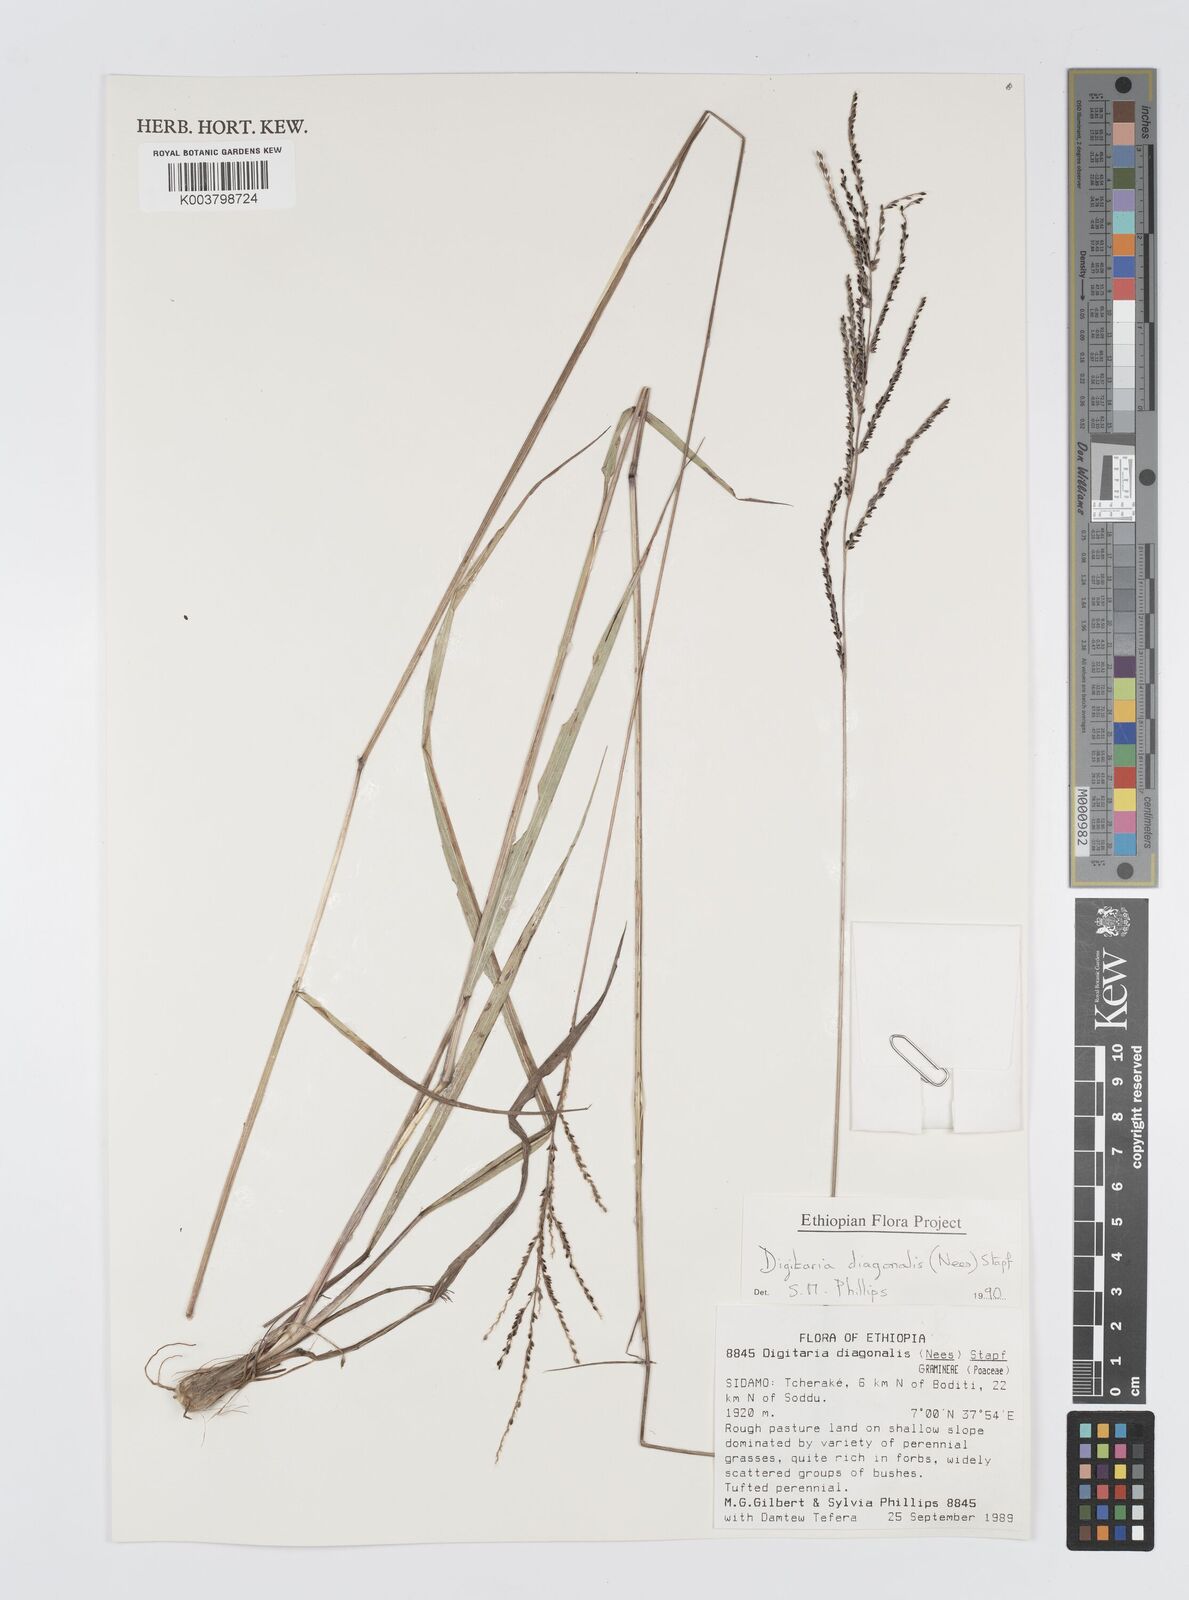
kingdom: Plantae
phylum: Tracheophyta
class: Liliopsida
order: Poales
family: Poaceae
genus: Digitaria
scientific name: Digitaria diagonalis
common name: Brown-seed finger grass
